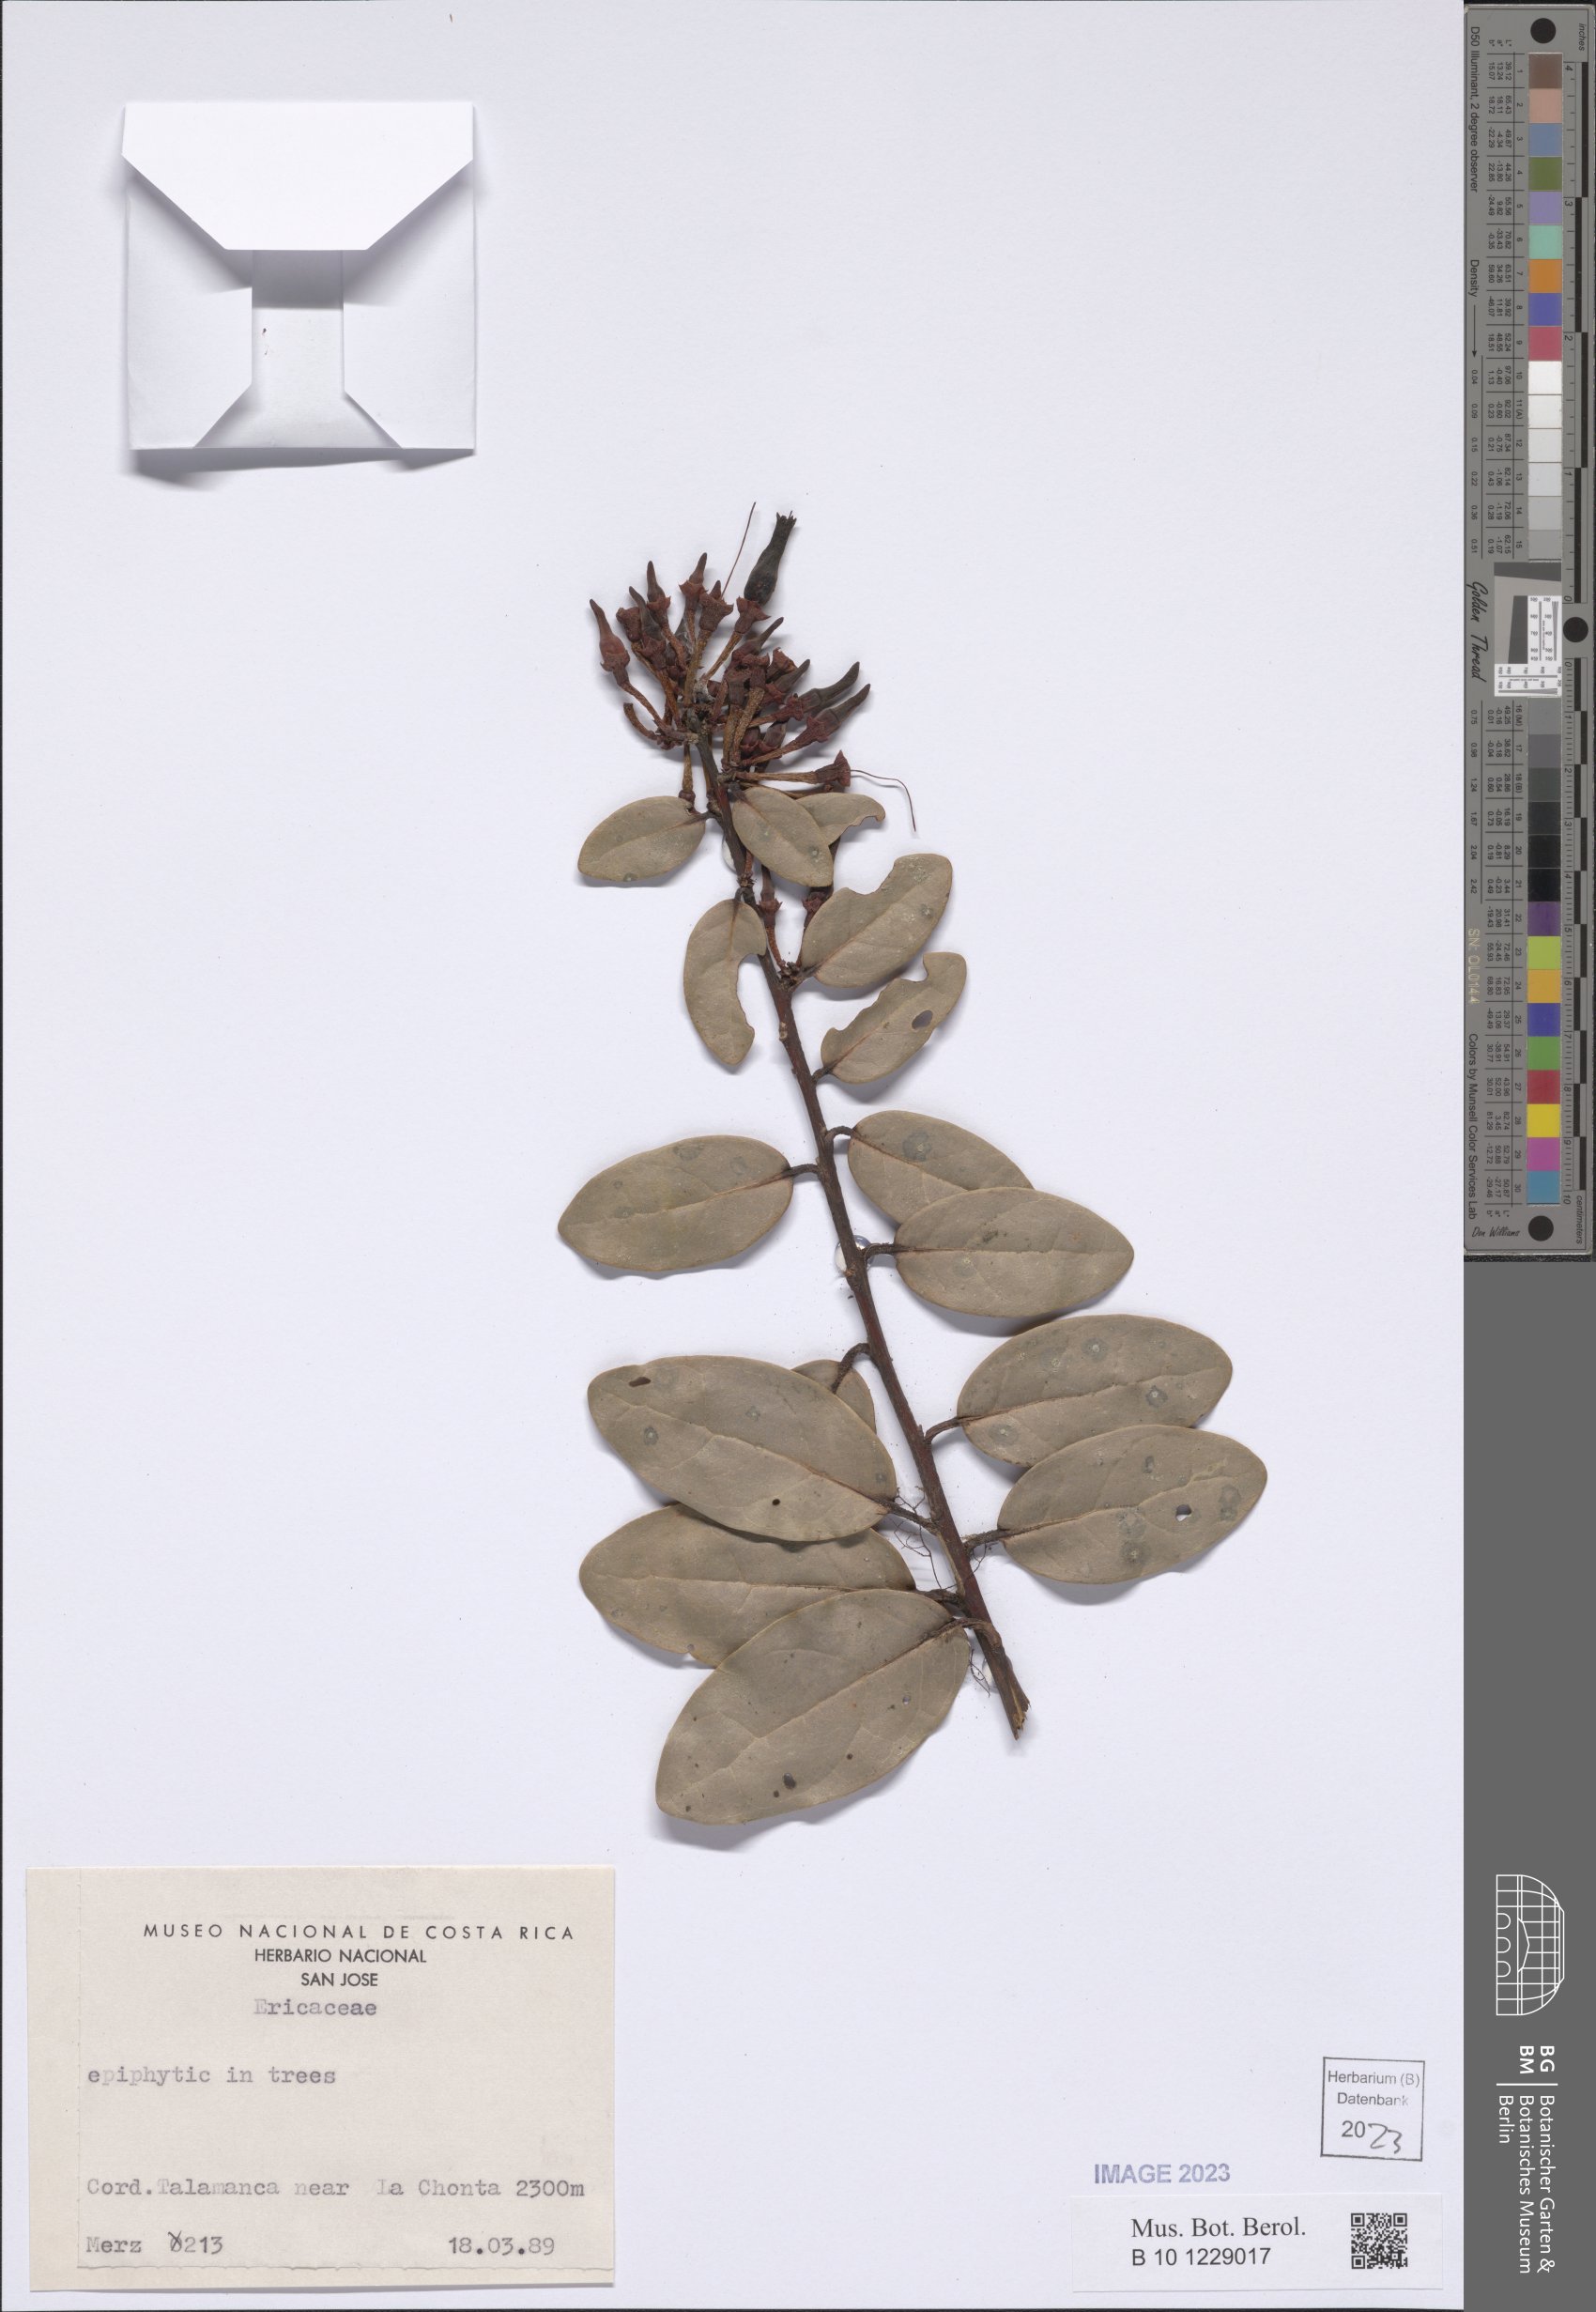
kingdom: Plantae
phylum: Tracheophyta
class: Magnoliopsida
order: Ericales
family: Ericaceae
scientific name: Ericaceae
